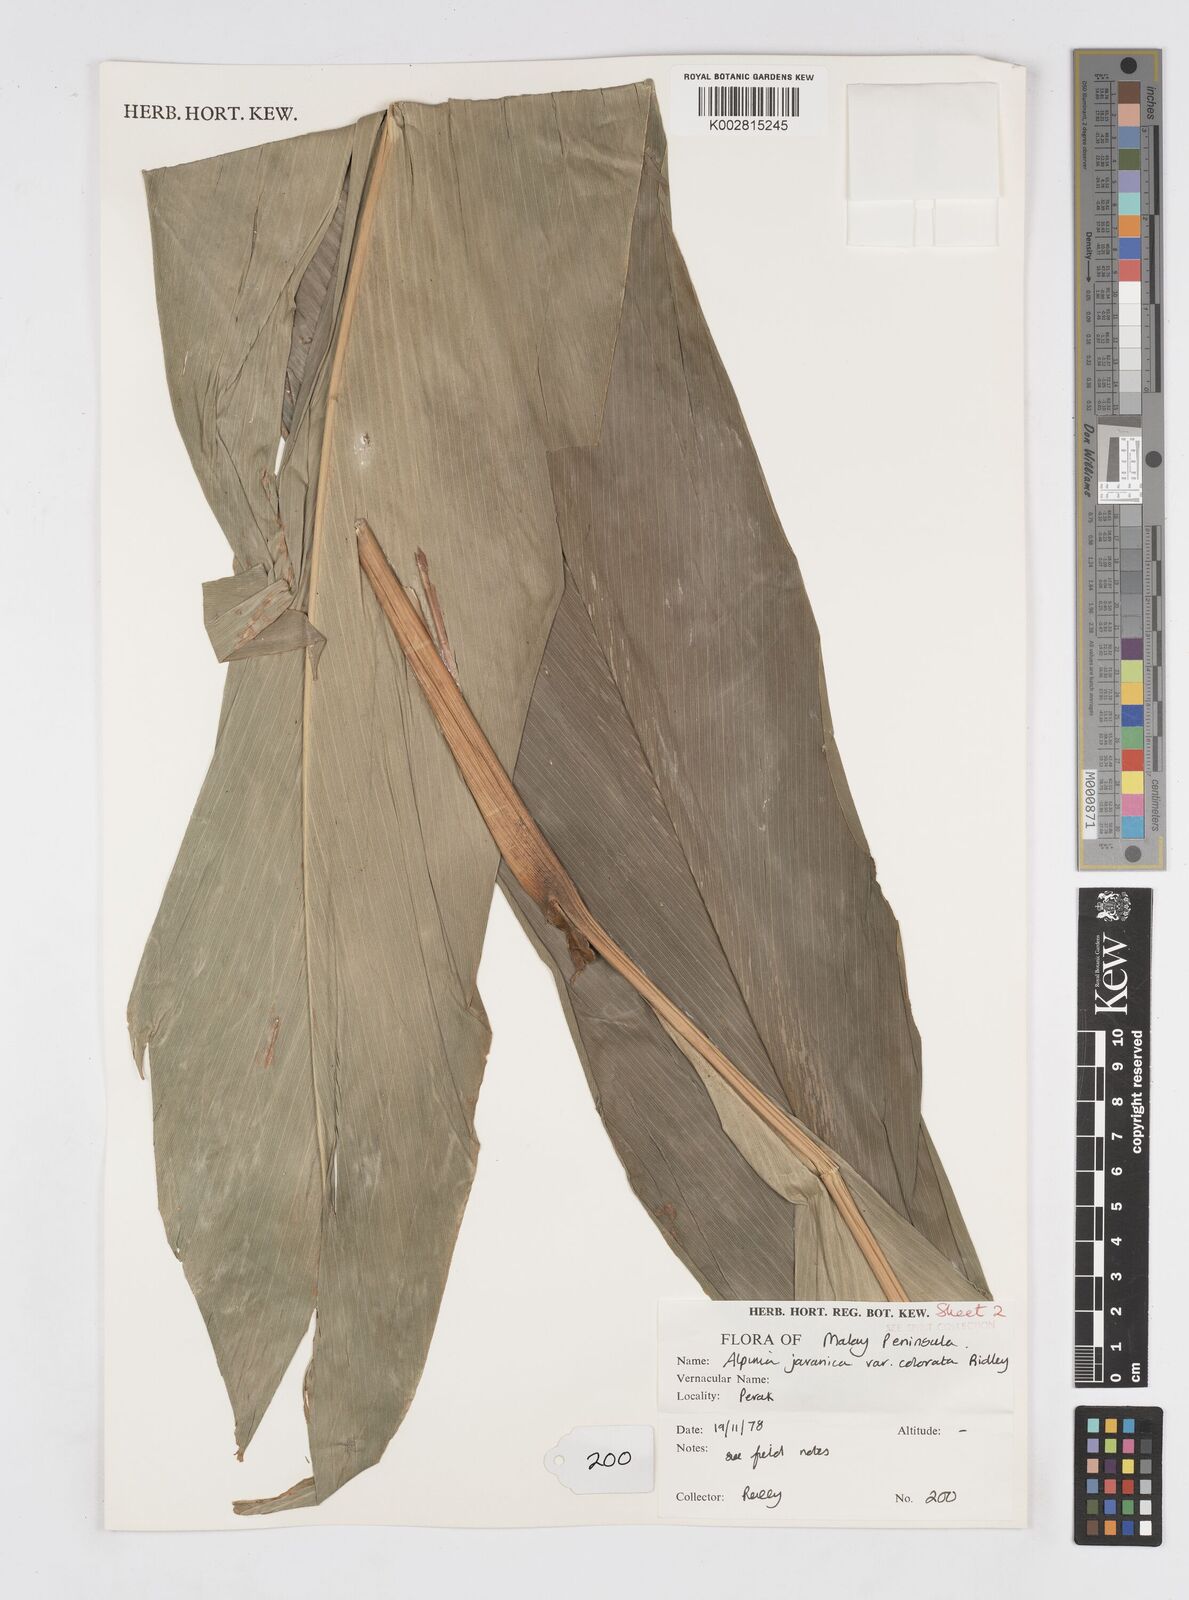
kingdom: Plantae
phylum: Tracheophyta
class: Liliopsida
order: Zingiberales
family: Zingiberaceae
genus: Alpinia
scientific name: Alpinia javanica
